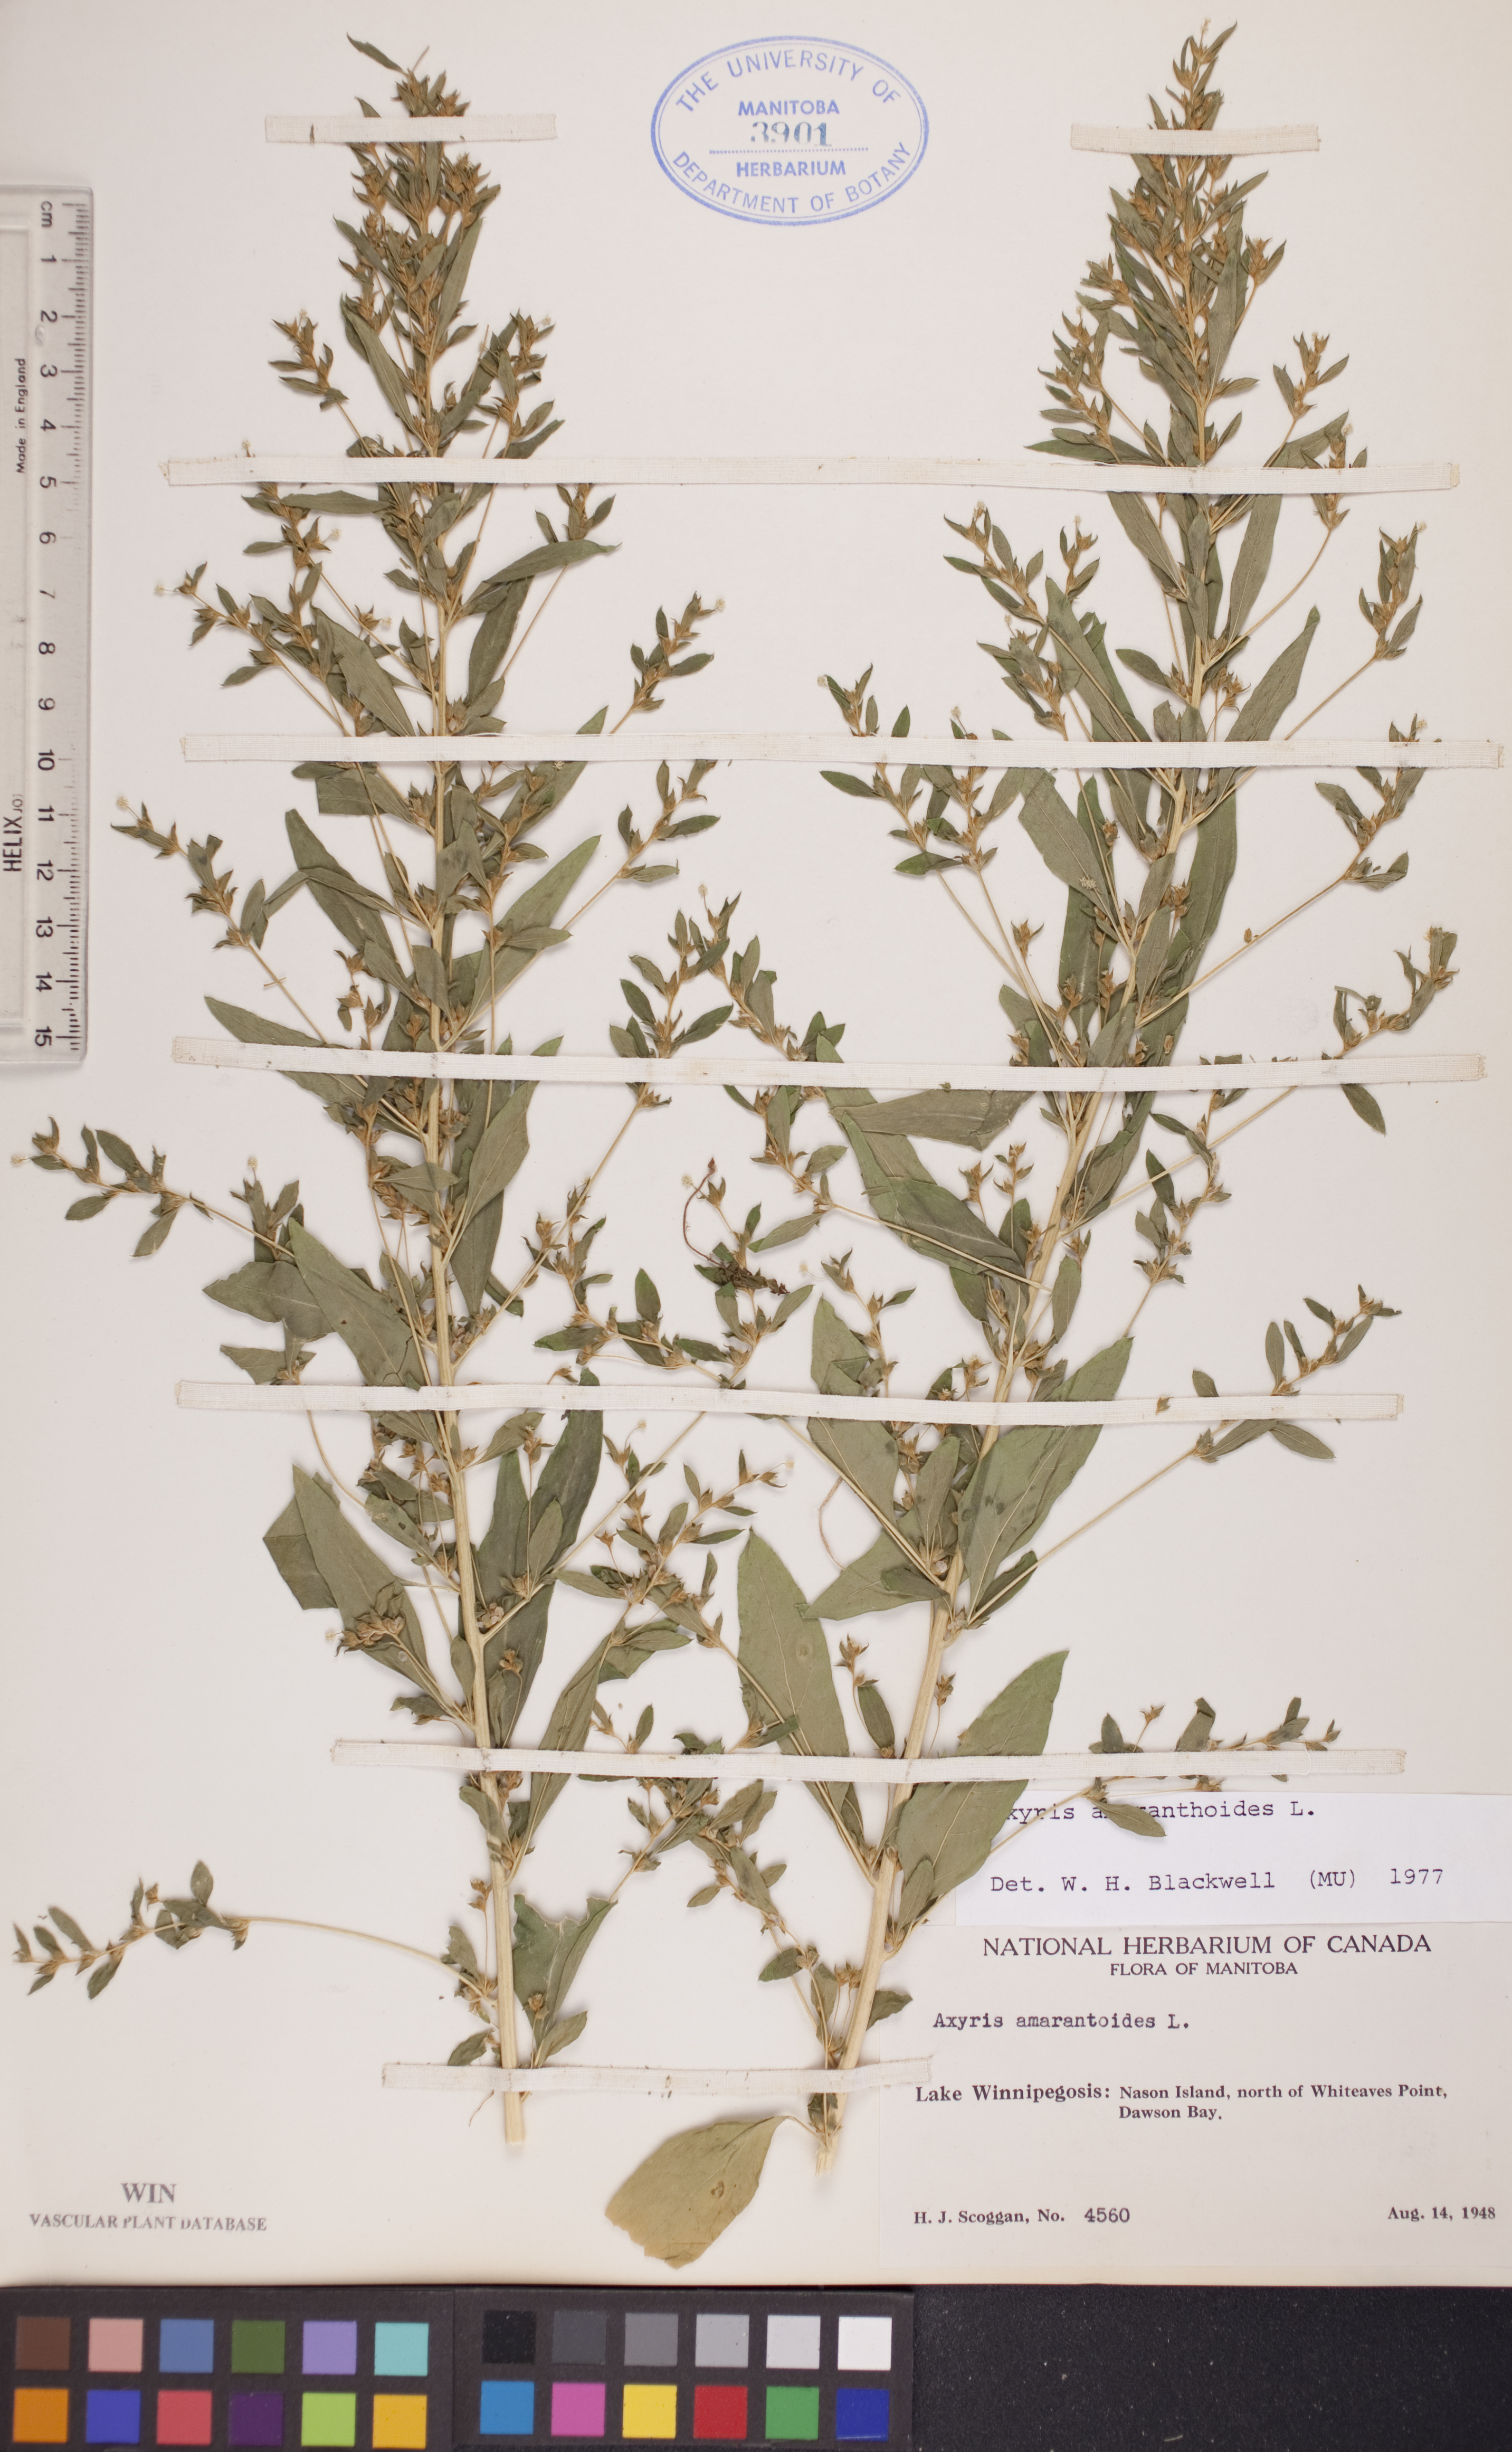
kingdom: Plantae
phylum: Tracheophyta
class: Magnoliopsida
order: Caryophyllales
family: Amaranthaceae
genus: Axyris
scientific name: Axyris amaranthoides
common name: Russian pigweed
